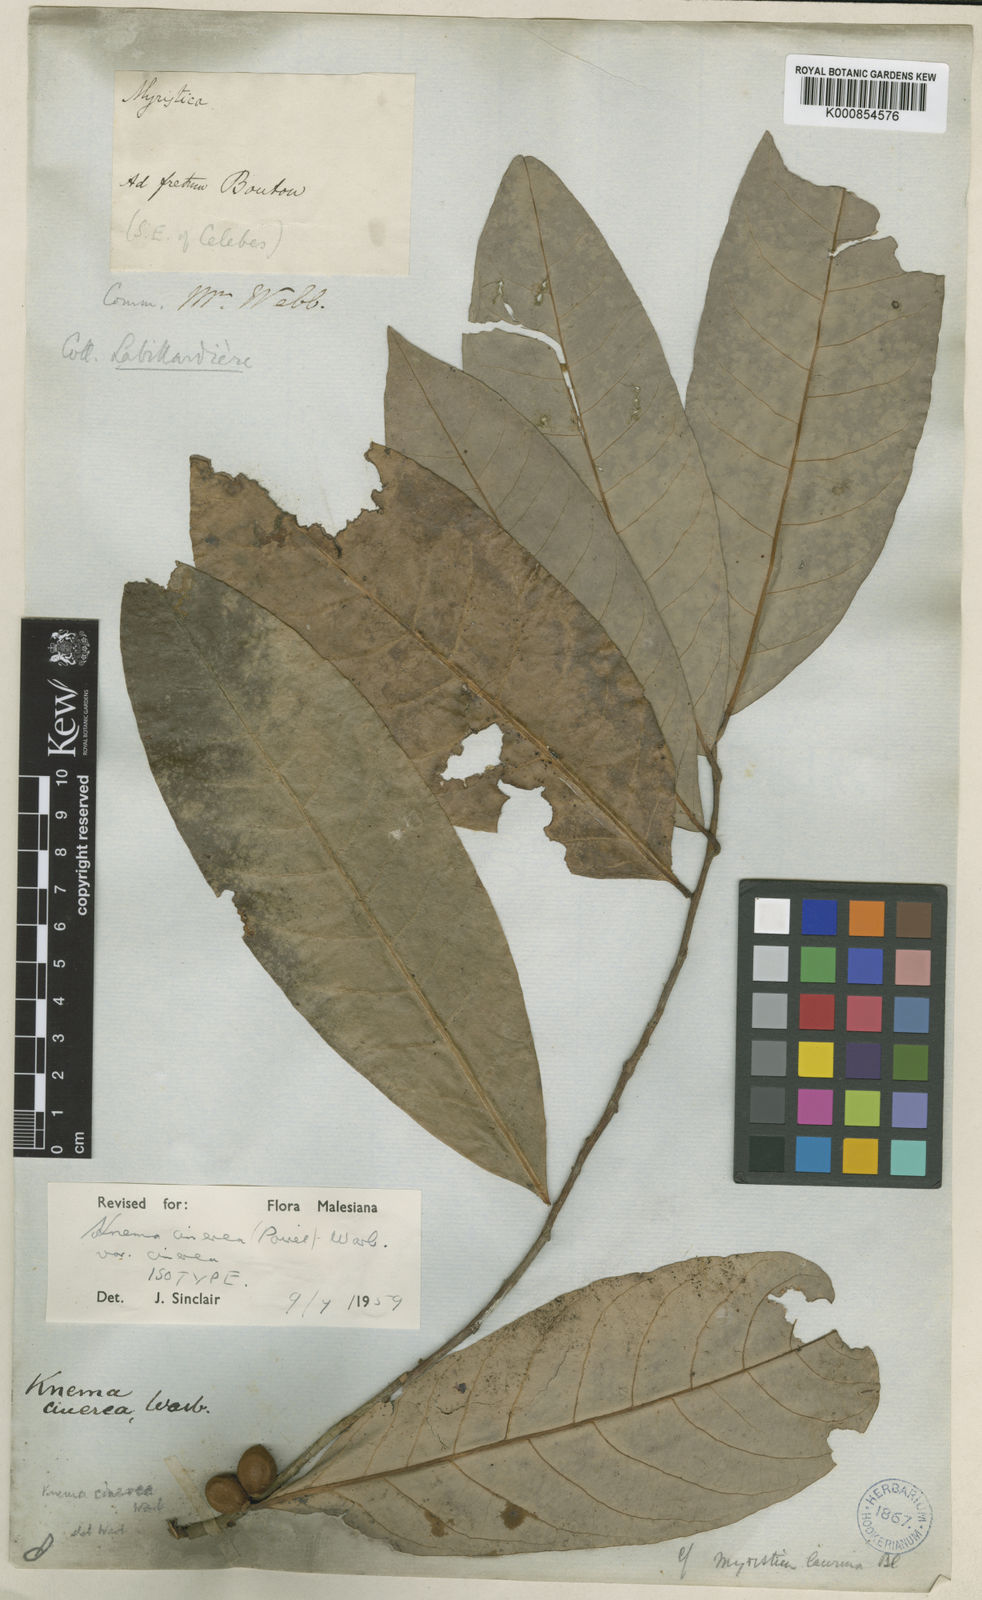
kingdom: Plantae
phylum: Tracheophyta
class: Magnoliopsida
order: Magnoliales
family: Myristicaceae
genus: Knema
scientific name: Knema glaucescens
